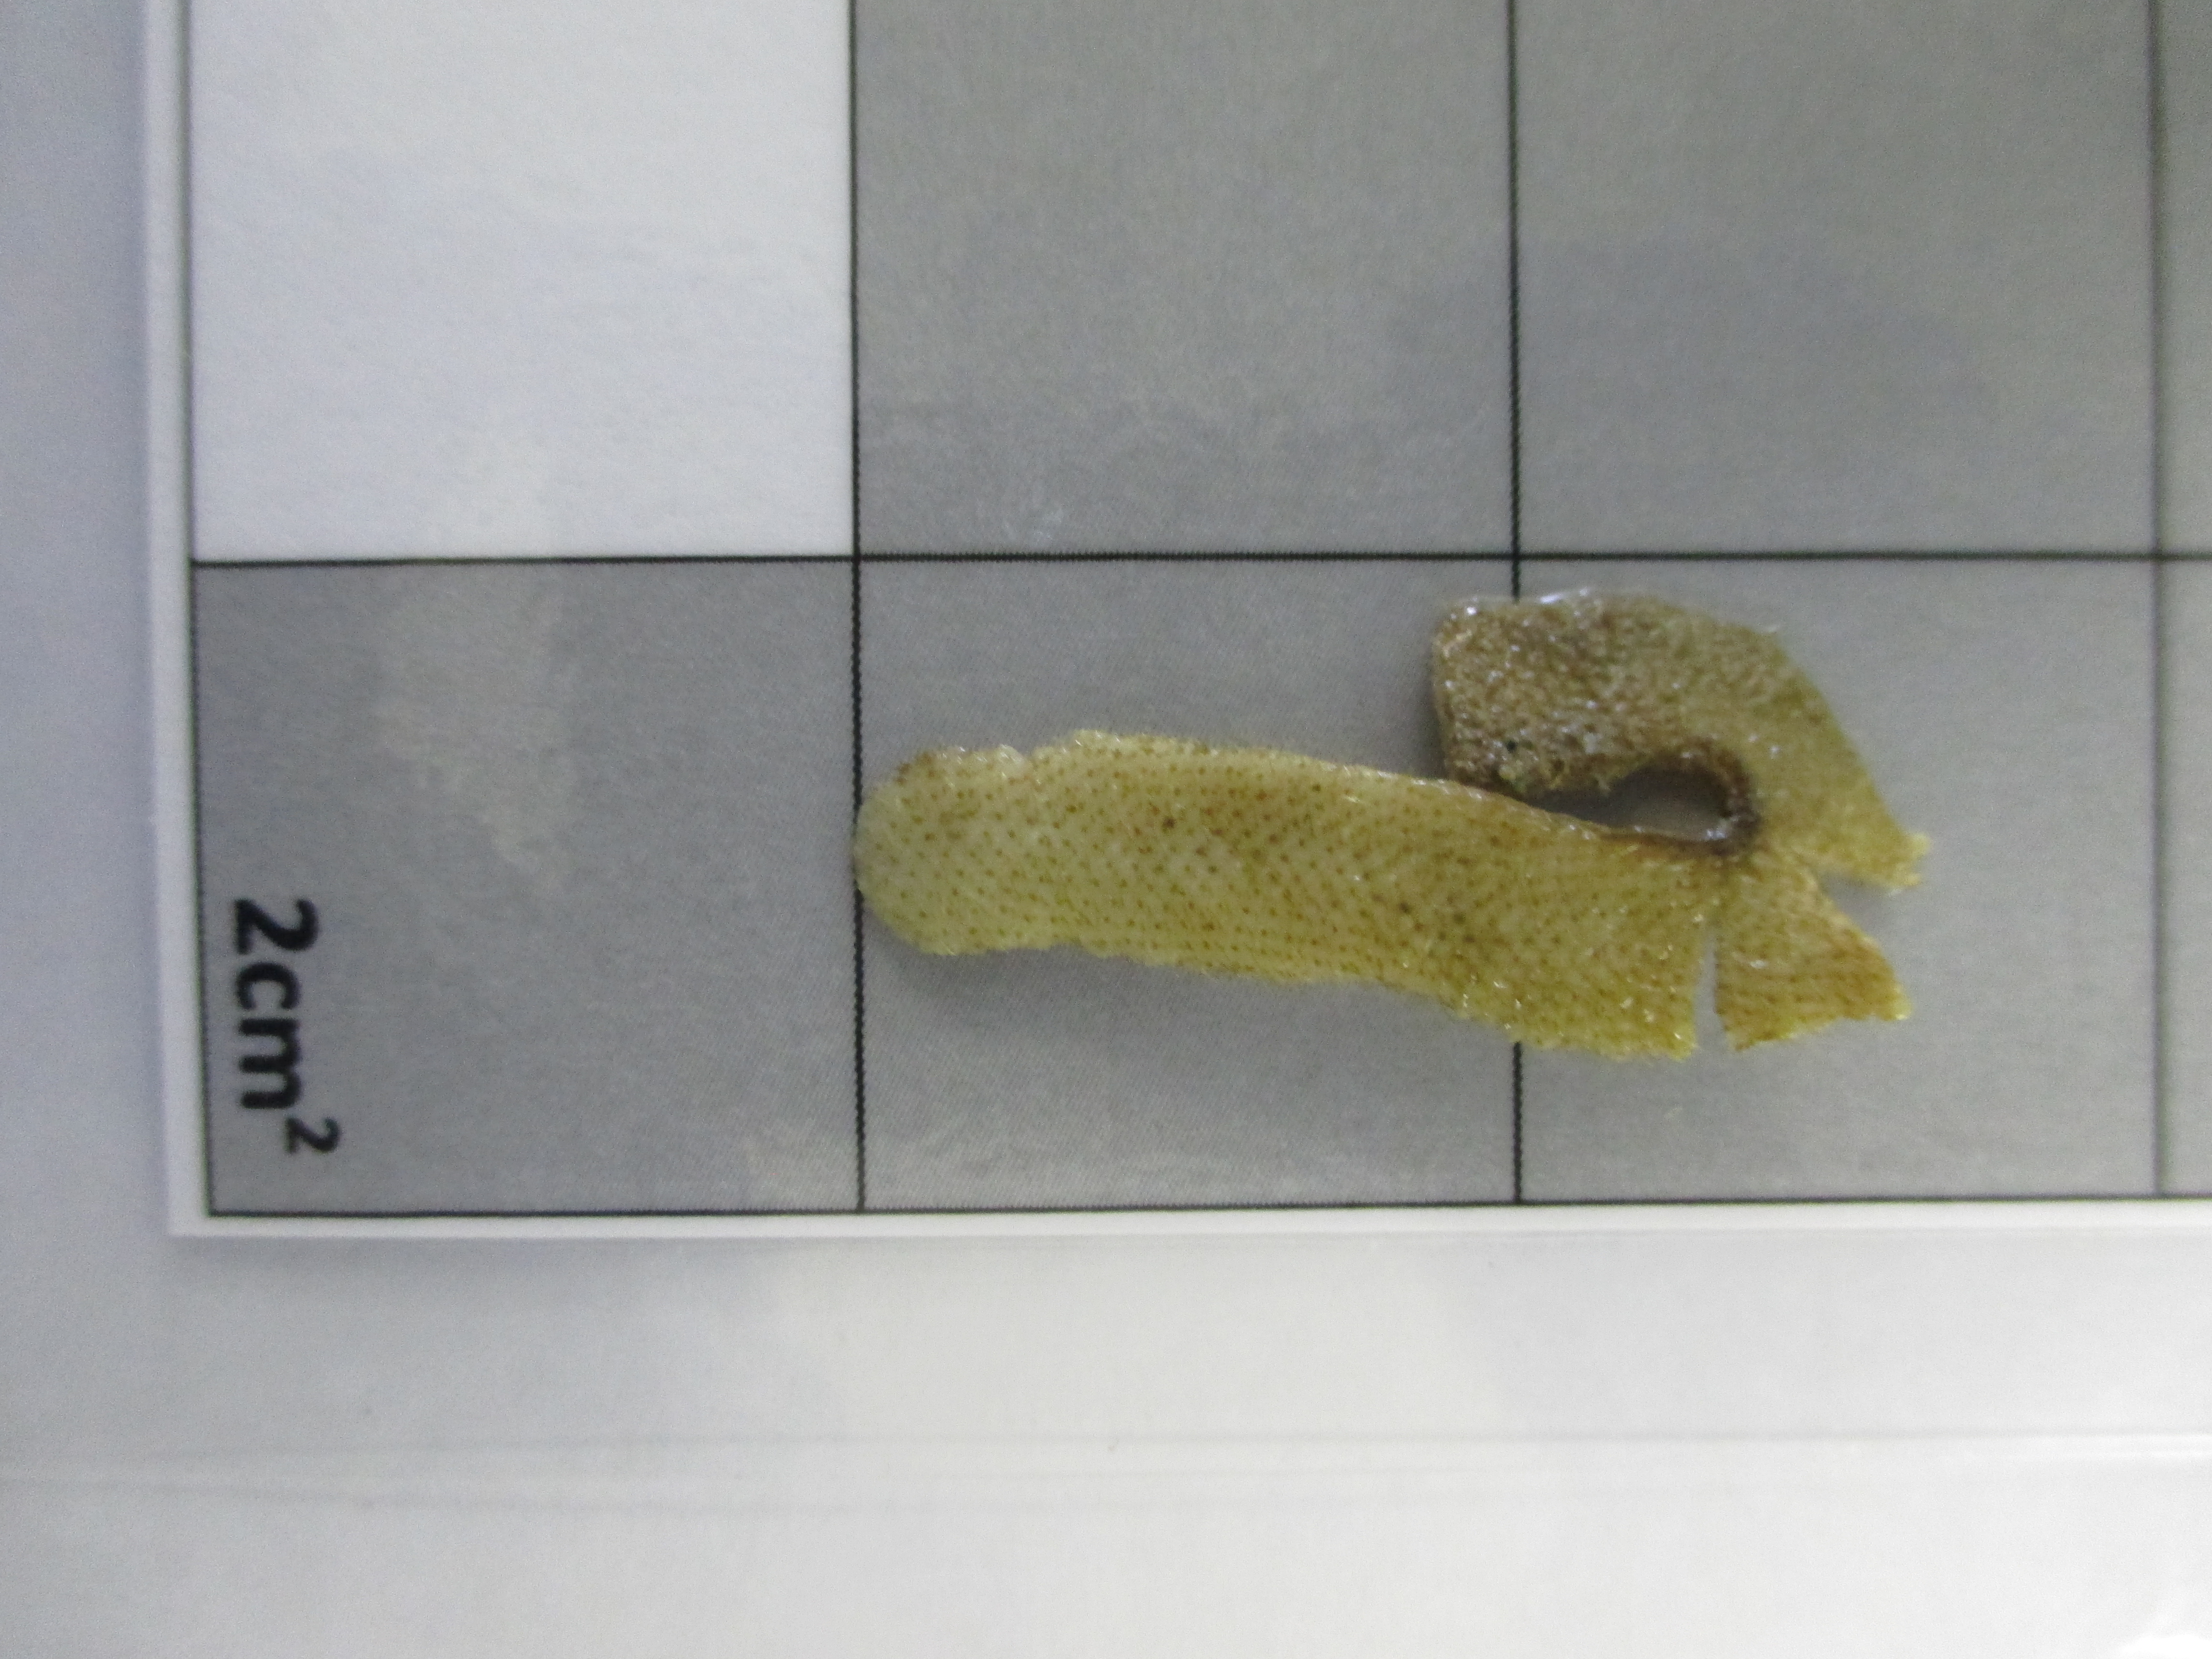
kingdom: Animalia
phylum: Bryozoa
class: Gymnolaemata
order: Cheilostomatida
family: Microporellidae
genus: Flustramorpha
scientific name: Flustramorpha angusta
